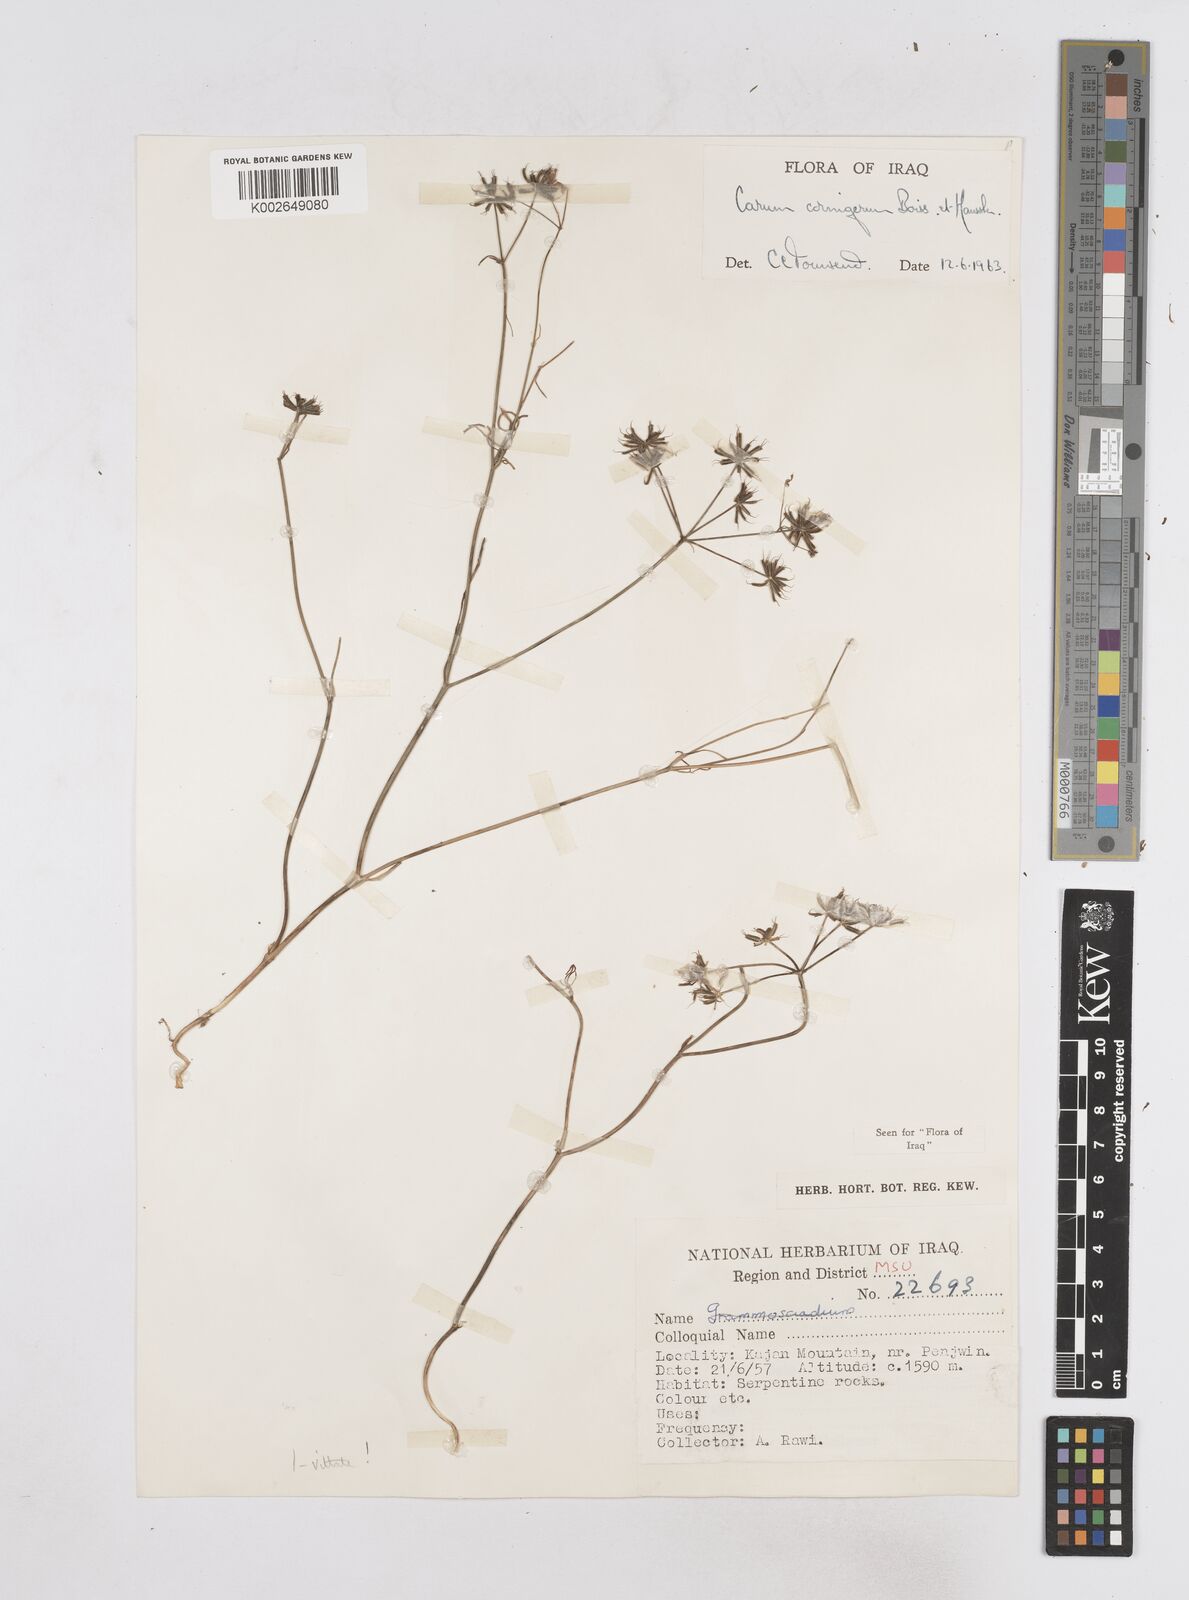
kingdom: Plantae
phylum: Tracheophyta
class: Magnoliopsida
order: Apiales
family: Apiaceae
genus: Bunium
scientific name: Bunium cornigerum
